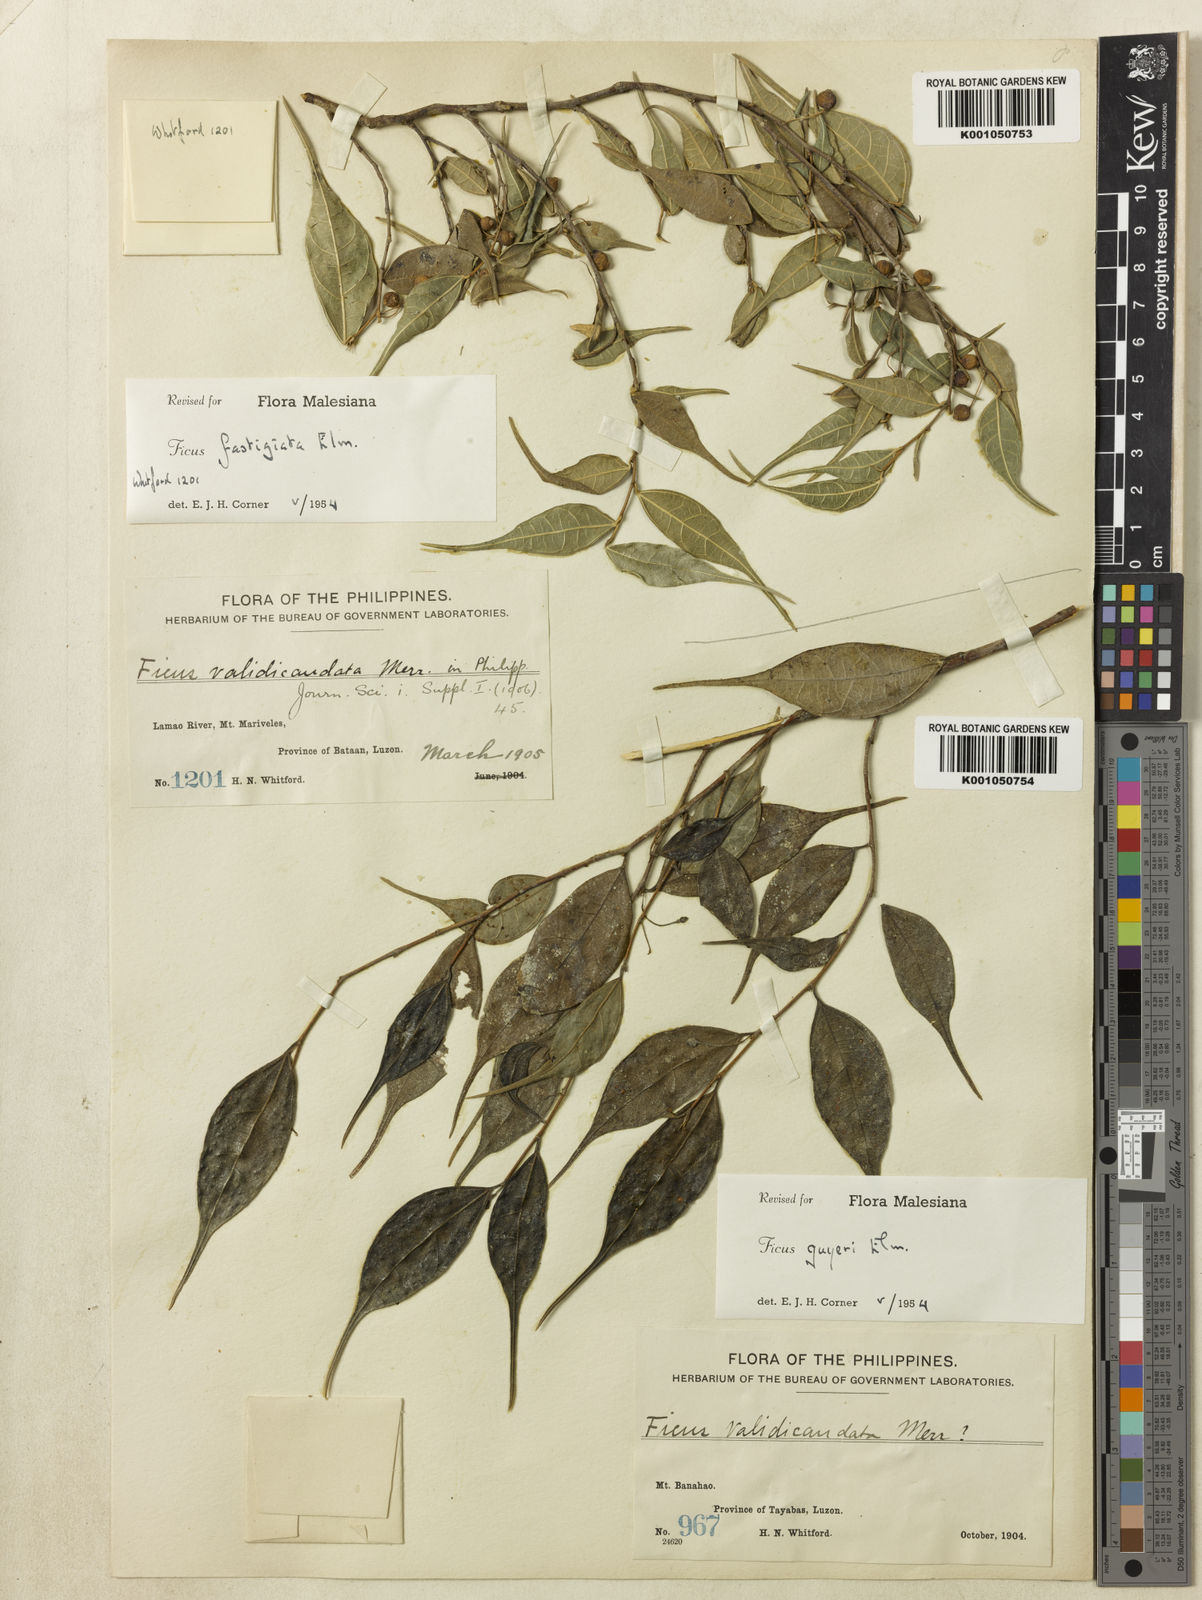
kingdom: Plantae
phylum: Tracheophyta
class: Magnoliopsida
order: Rosales
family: Moraceae
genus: Ficus
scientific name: Ficus ampelos
